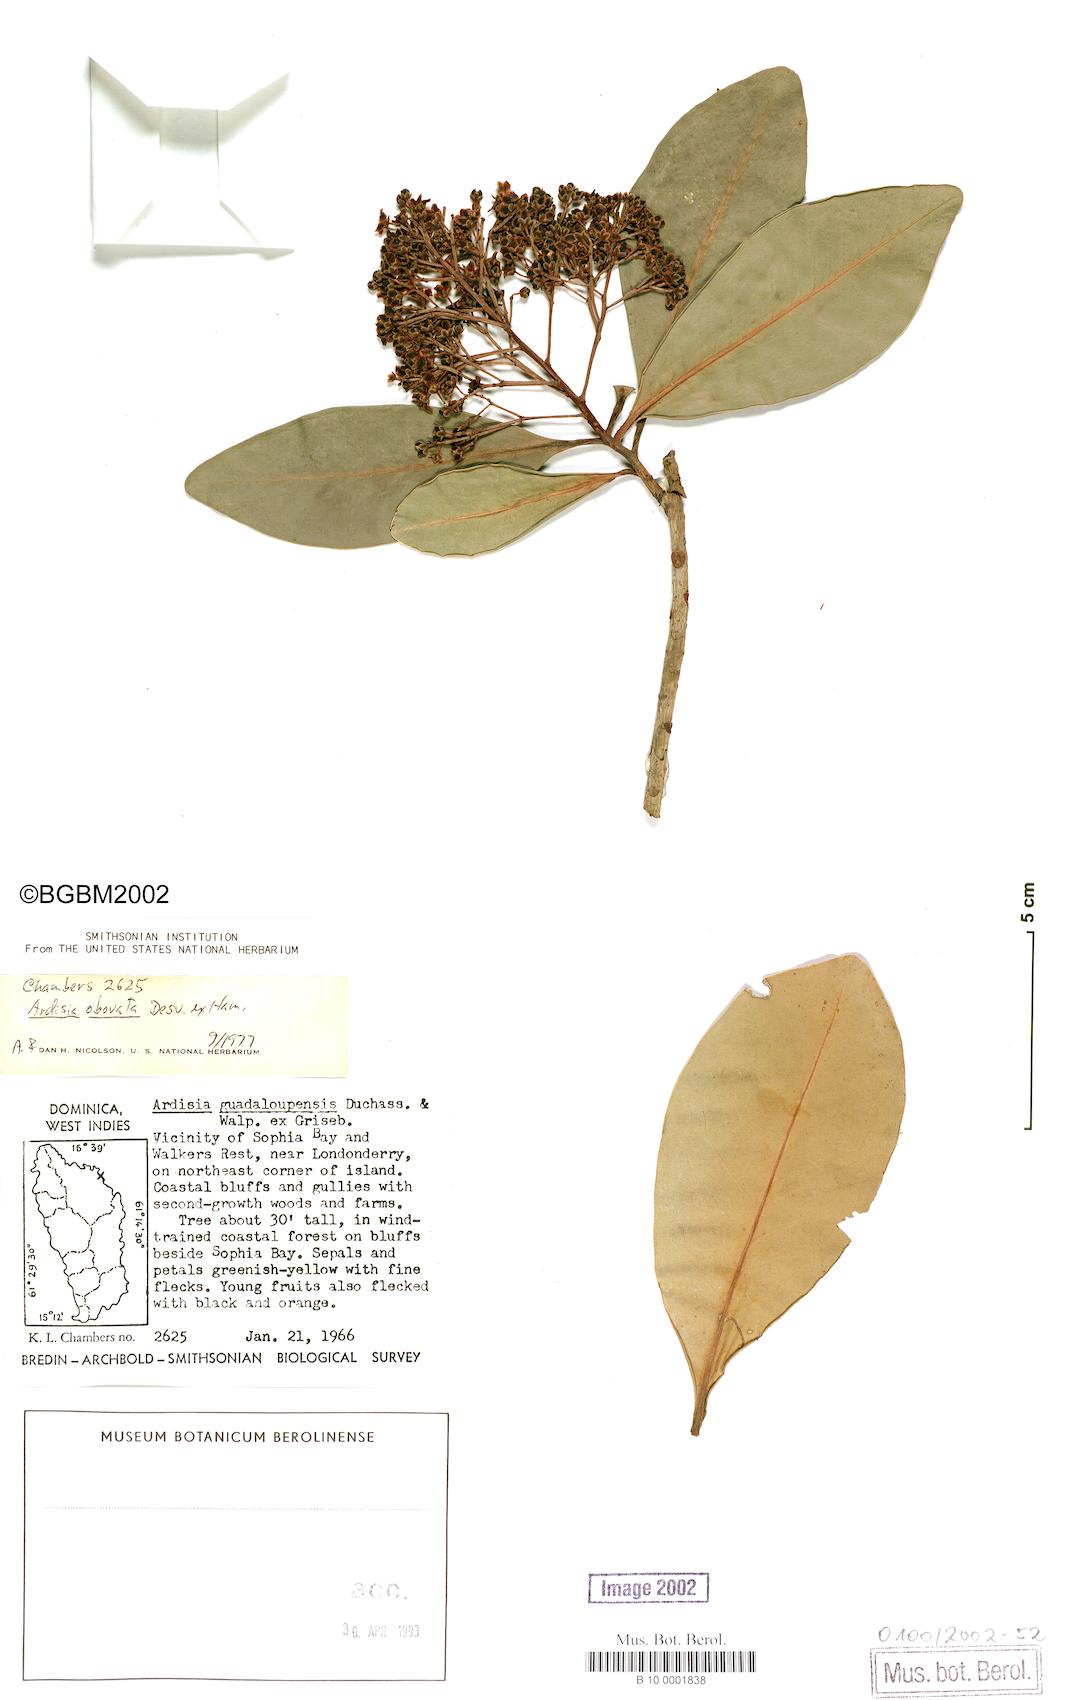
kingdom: Plantae
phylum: Tracheophyta
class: Magnoliopsida
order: Ericales
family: Primulaceae
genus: Ardisia
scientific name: Ardisia obovata
